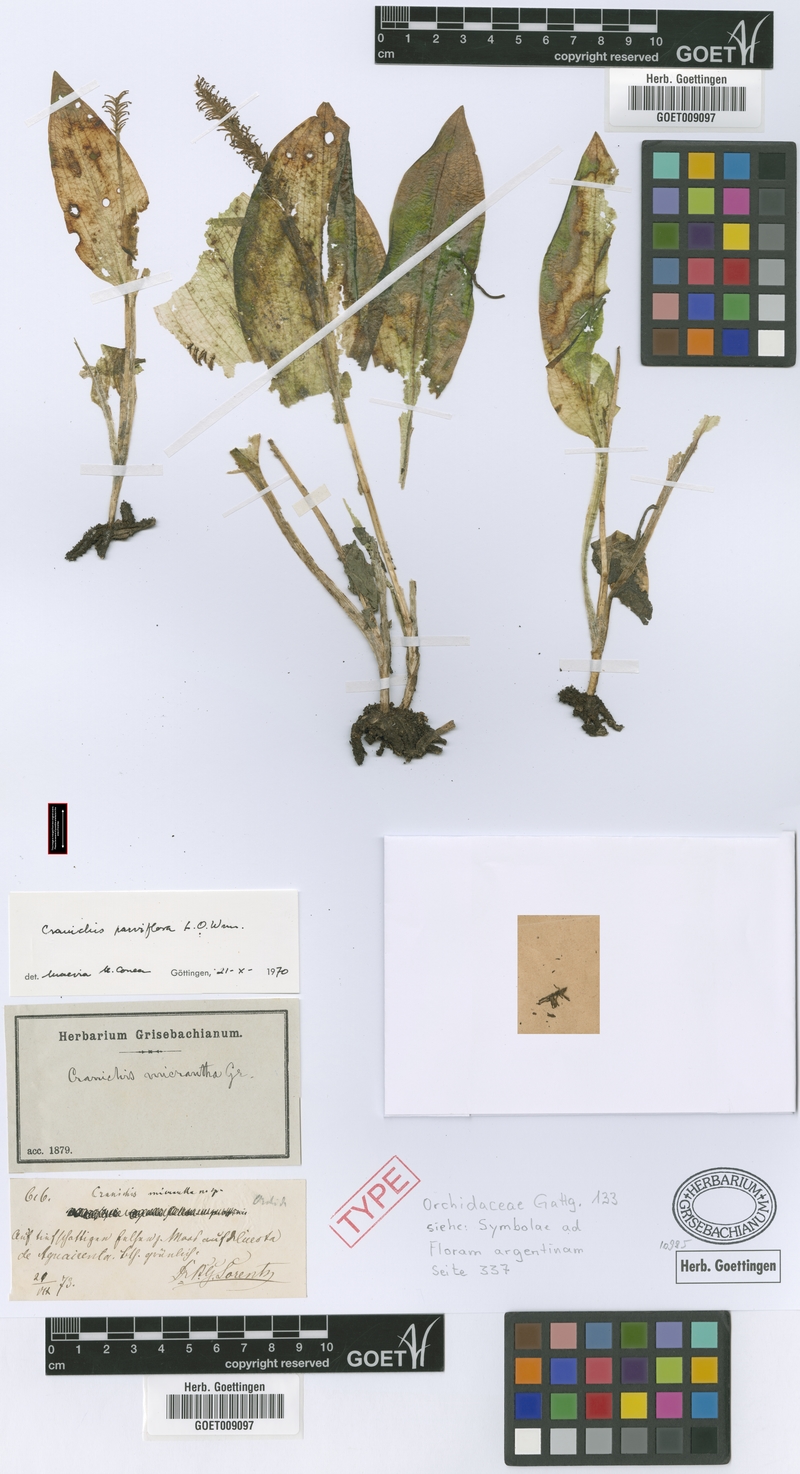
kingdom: Plantae
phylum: Tracheophyta
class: Liliopsida
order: Asparagales
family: Orchidaceae
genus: Cranichis
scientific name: Cranichis candida
